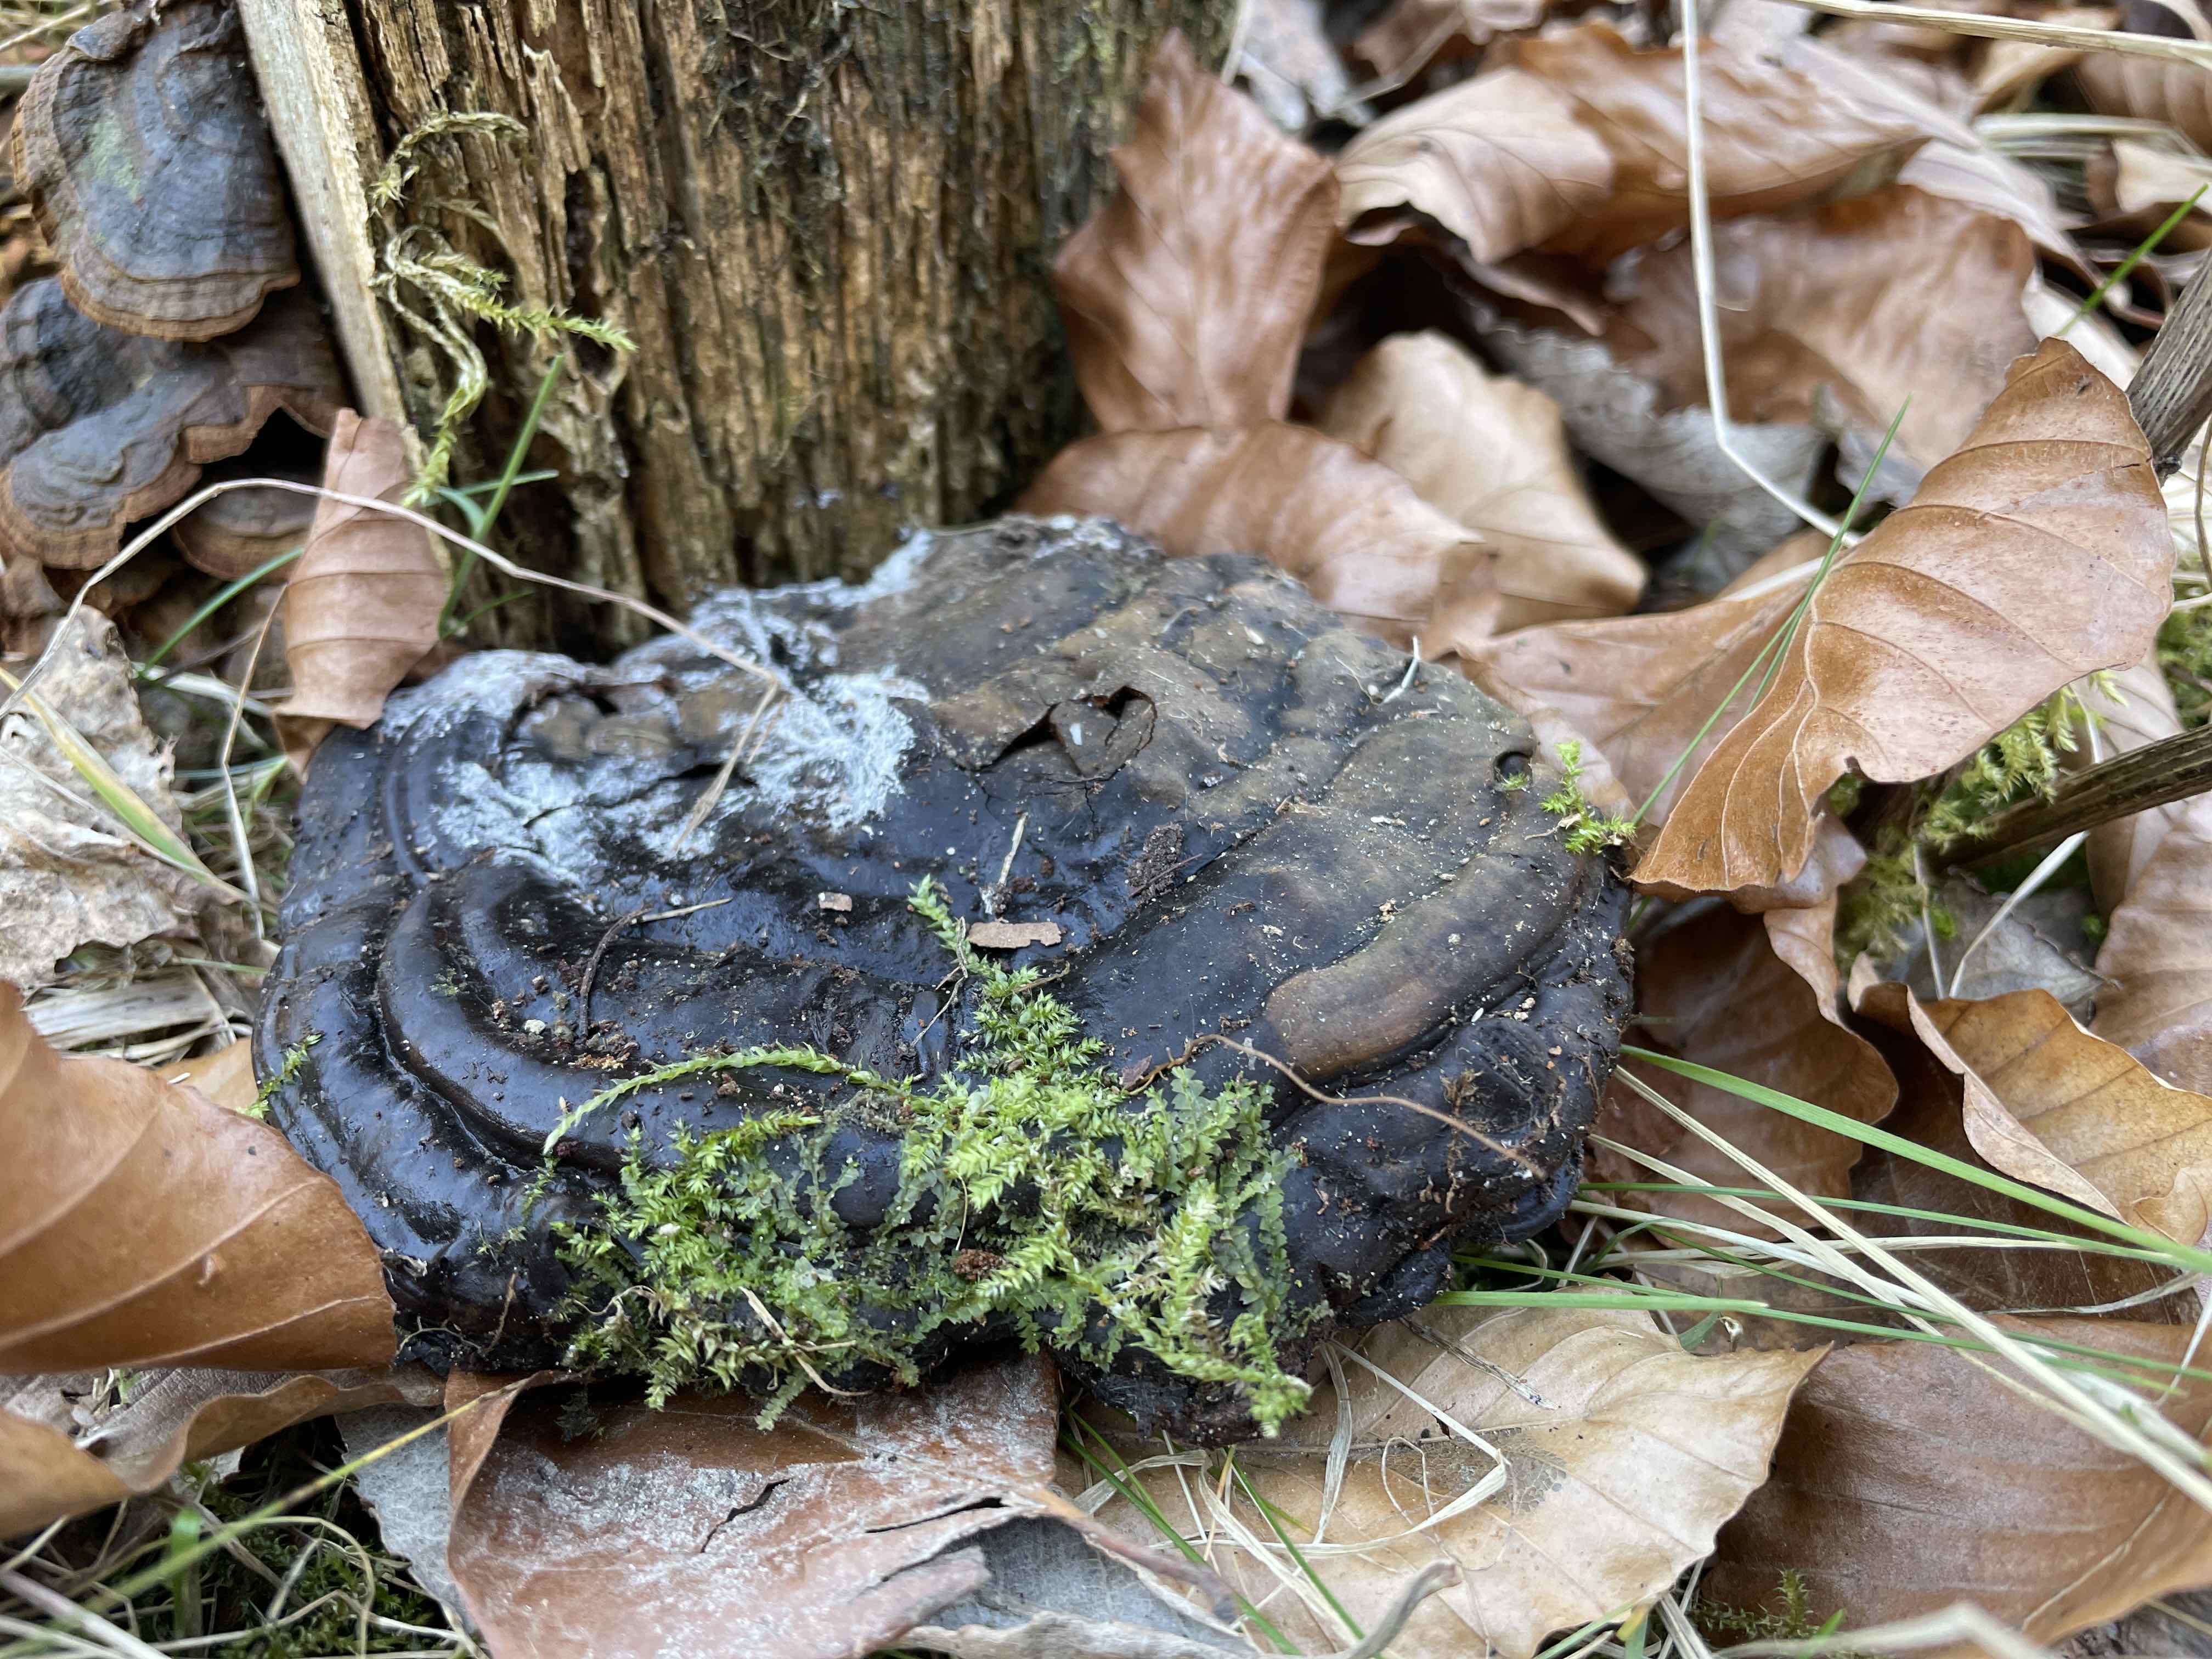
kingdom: Fungi
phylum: Basidiomycota
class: Agaricomycetes
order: Polyporales
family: Polyporaceae
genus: Ganoderma
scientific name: Ganoderma applanatum
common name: flad lakporesvamp
